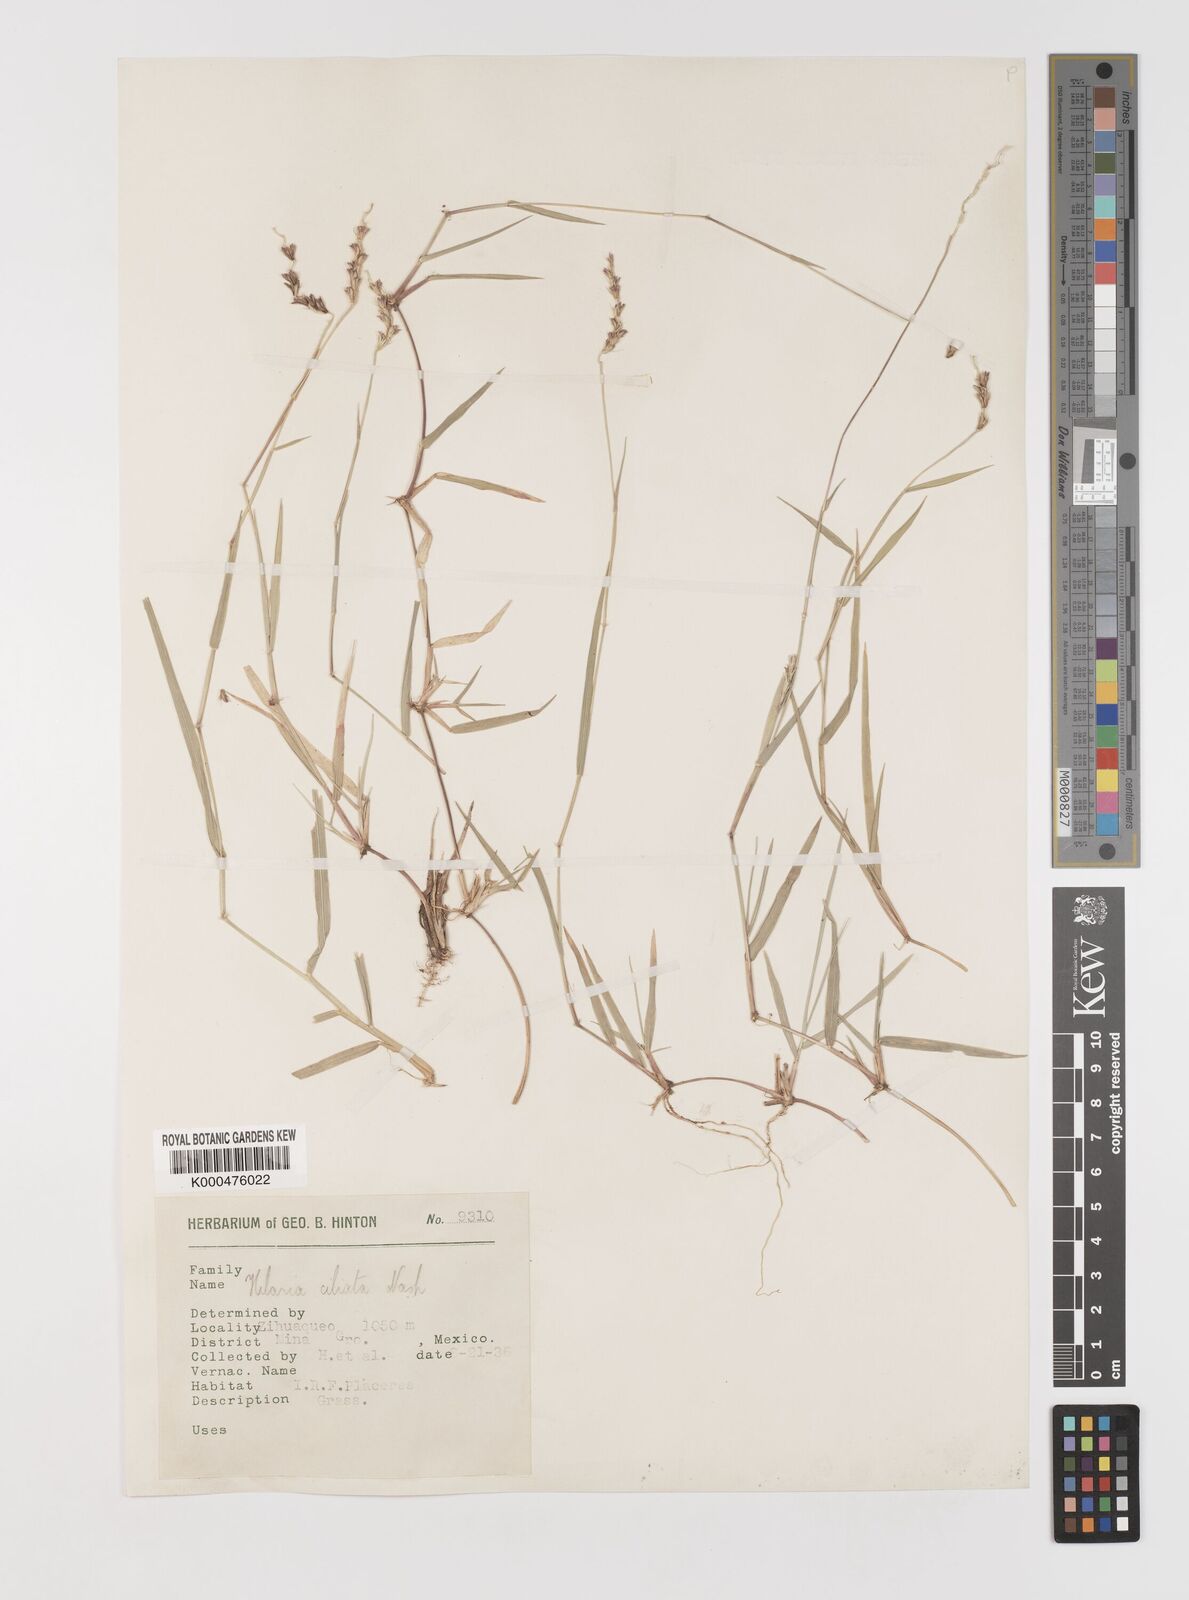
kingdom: Plantae
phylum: Tracheophyta
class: Liliopsida
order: Poales
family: Poaceae
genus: Hilaria
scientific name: Hilaria
